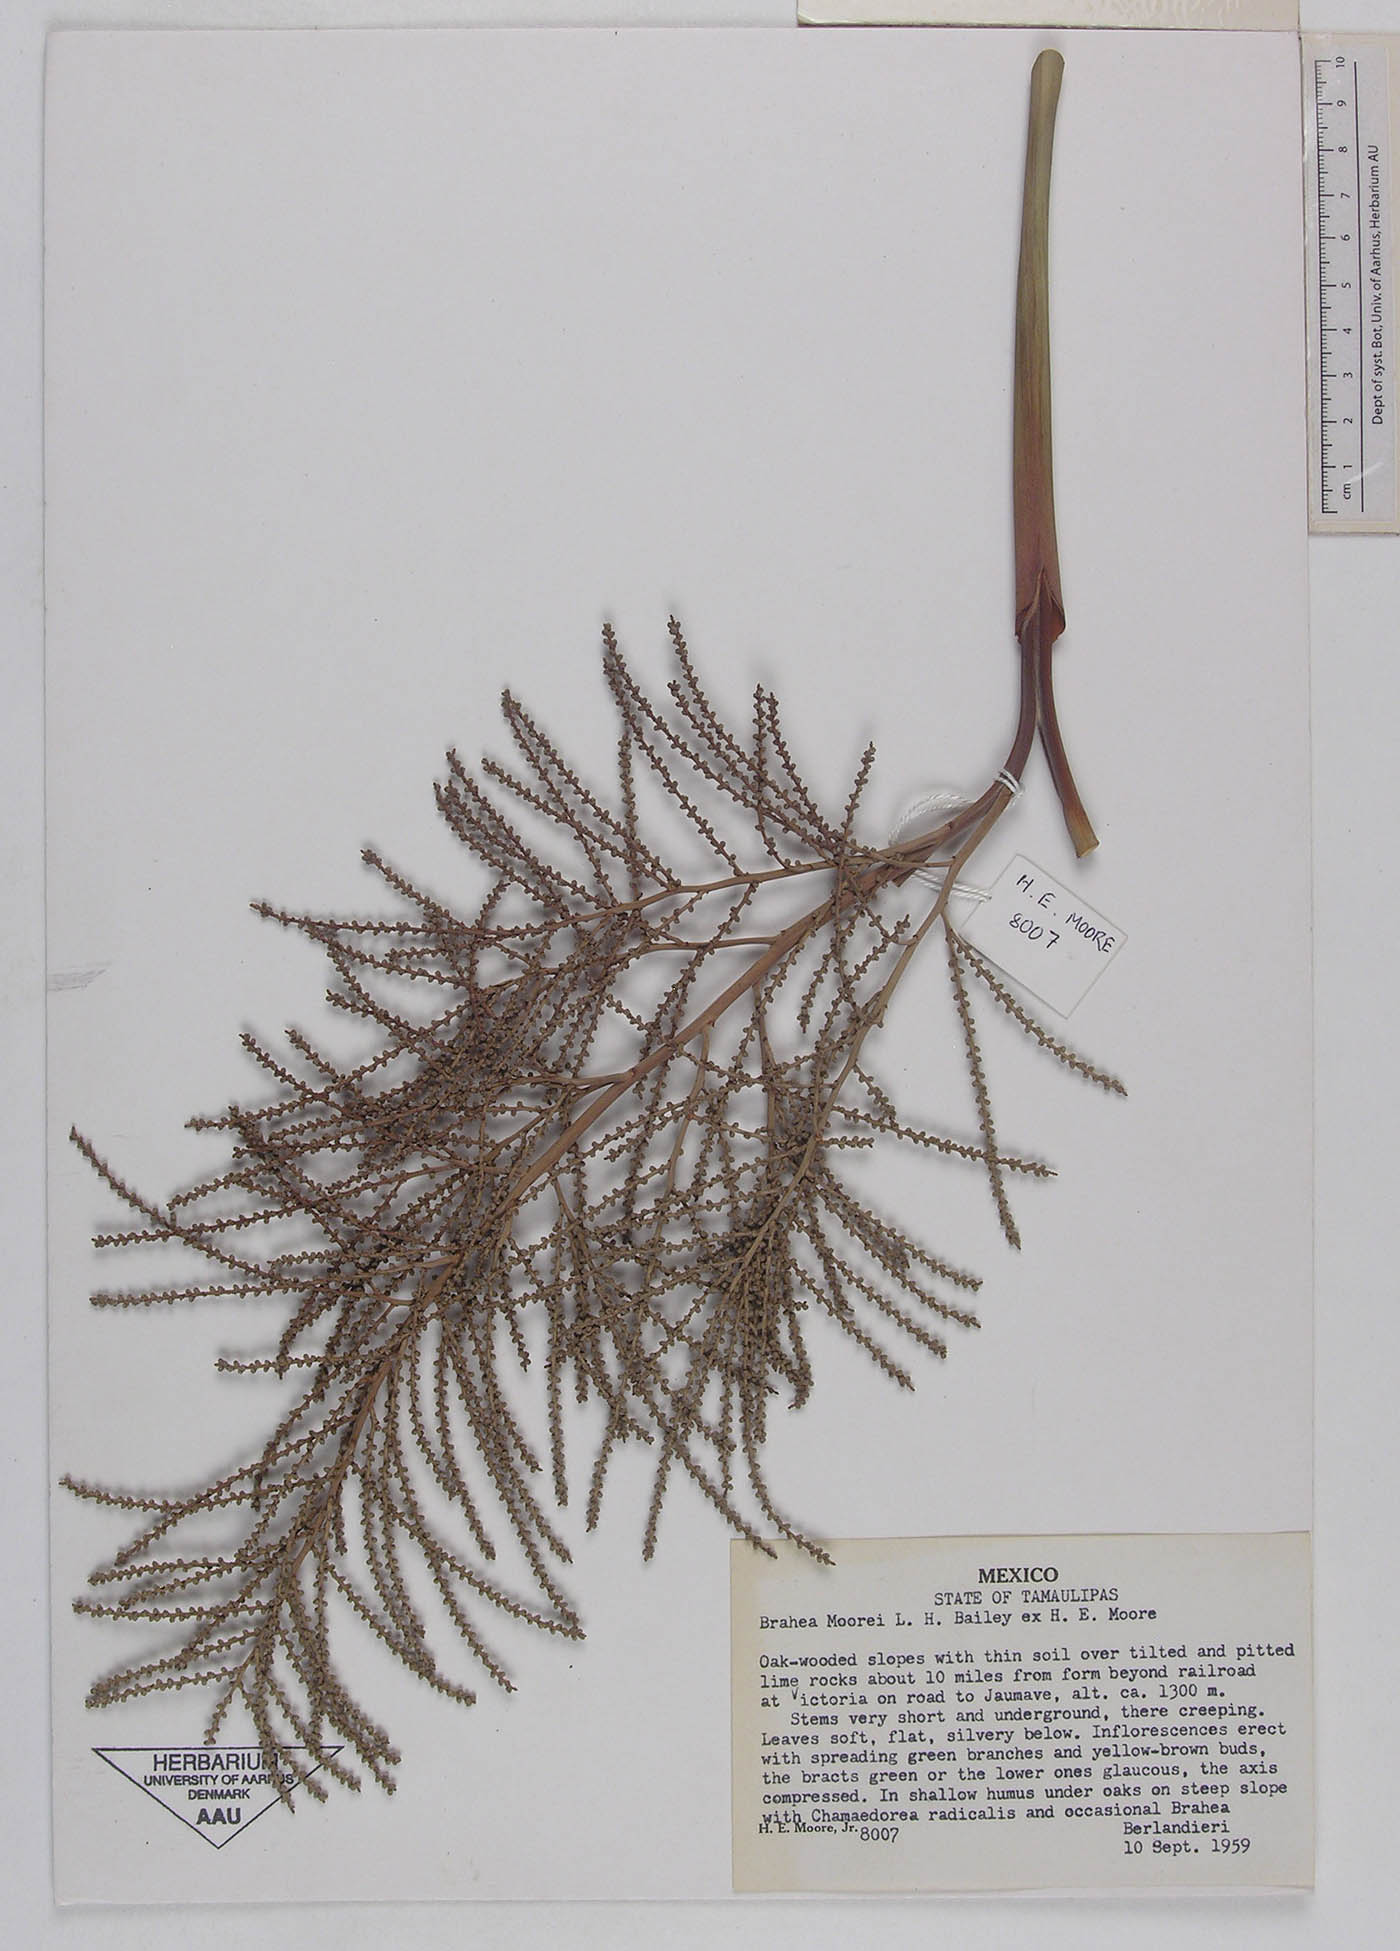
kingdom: Plantae
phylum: Tracheophyta
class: Liliopsida
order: Arecales
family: Arecaceae
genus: Brahea
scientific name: Brahea moorei
